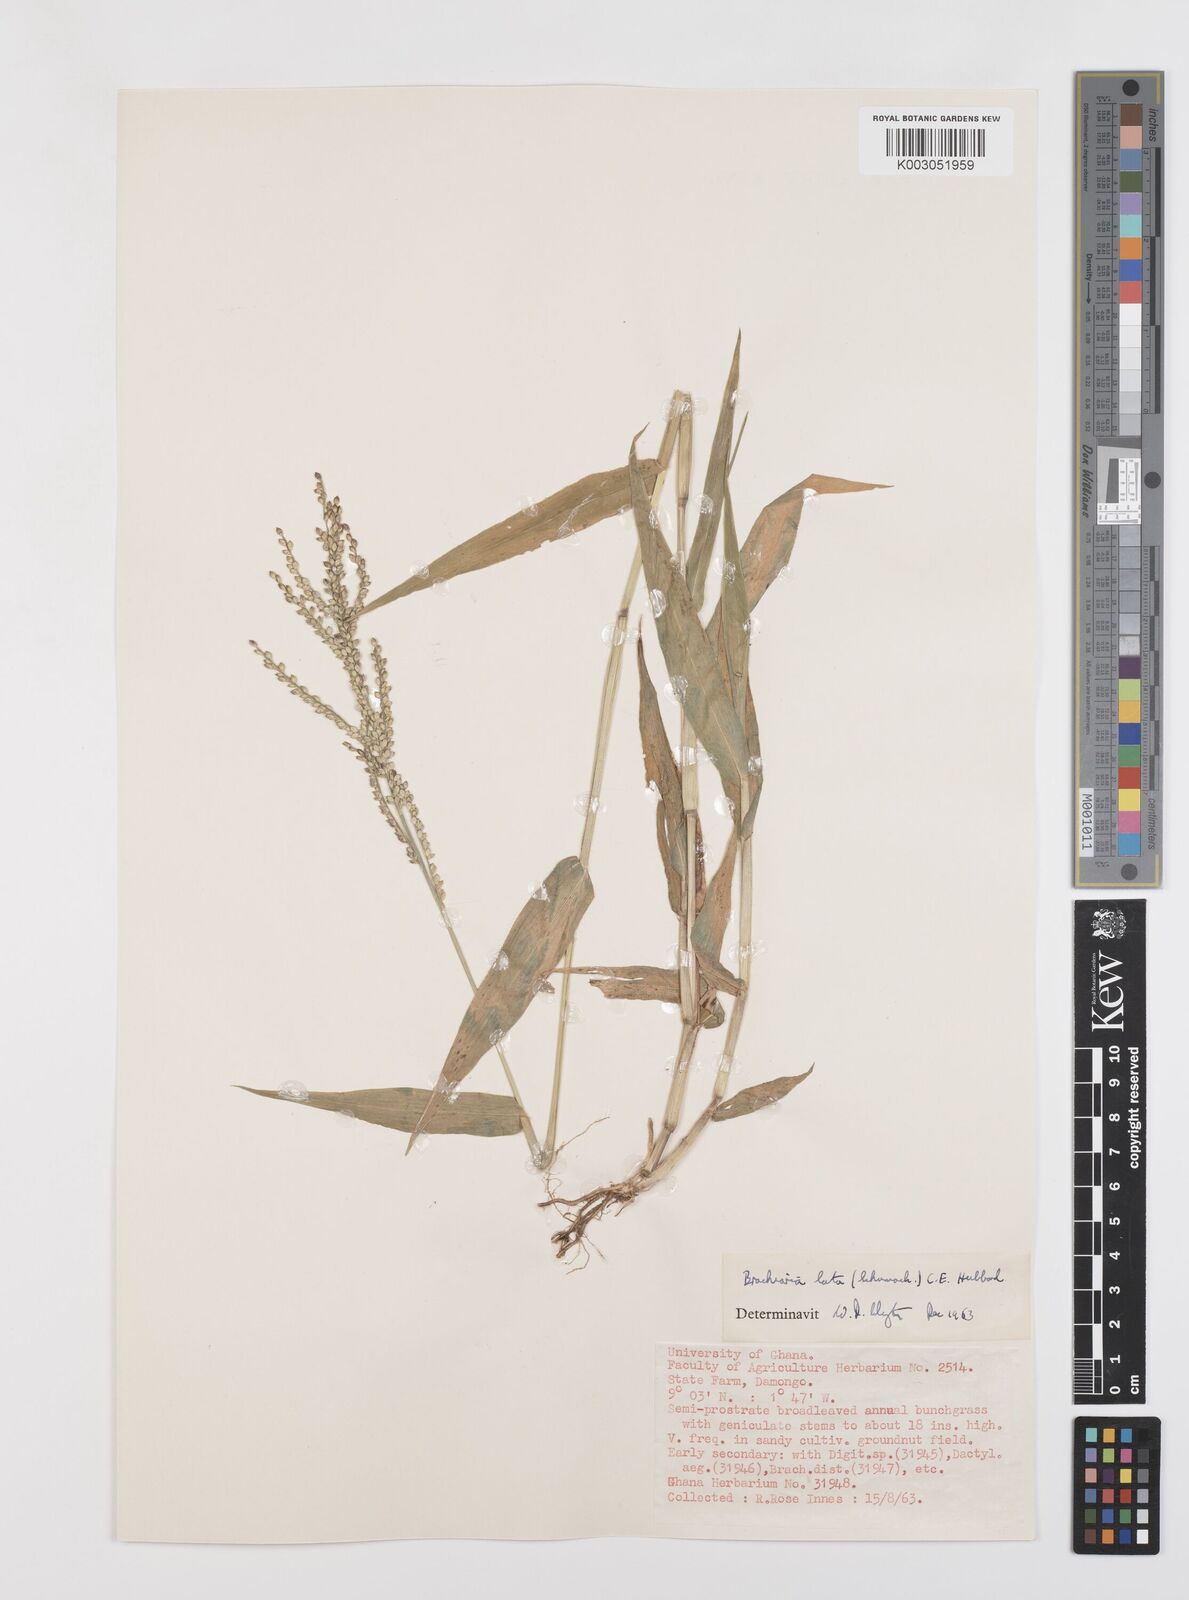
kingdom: Plantae
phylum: Tracheophyta
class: Liliopsida
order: Poales
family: Poaceae
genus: Urochloa
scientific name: Urochloa lata
